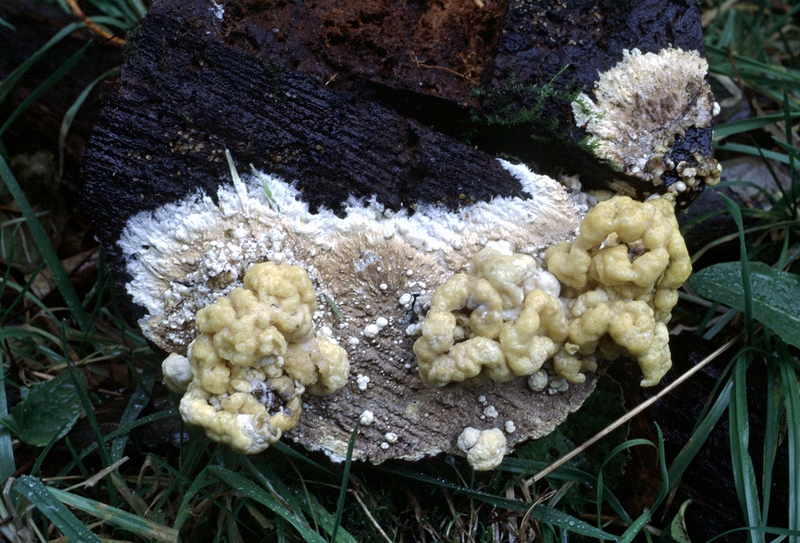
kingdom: Fungi
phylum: Basidiomycota
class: Agaricomycetes
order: Boletales
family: Coniophoraceae
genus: Coniophora
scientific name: Coniophora puteana
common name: gul tømmersvamp
